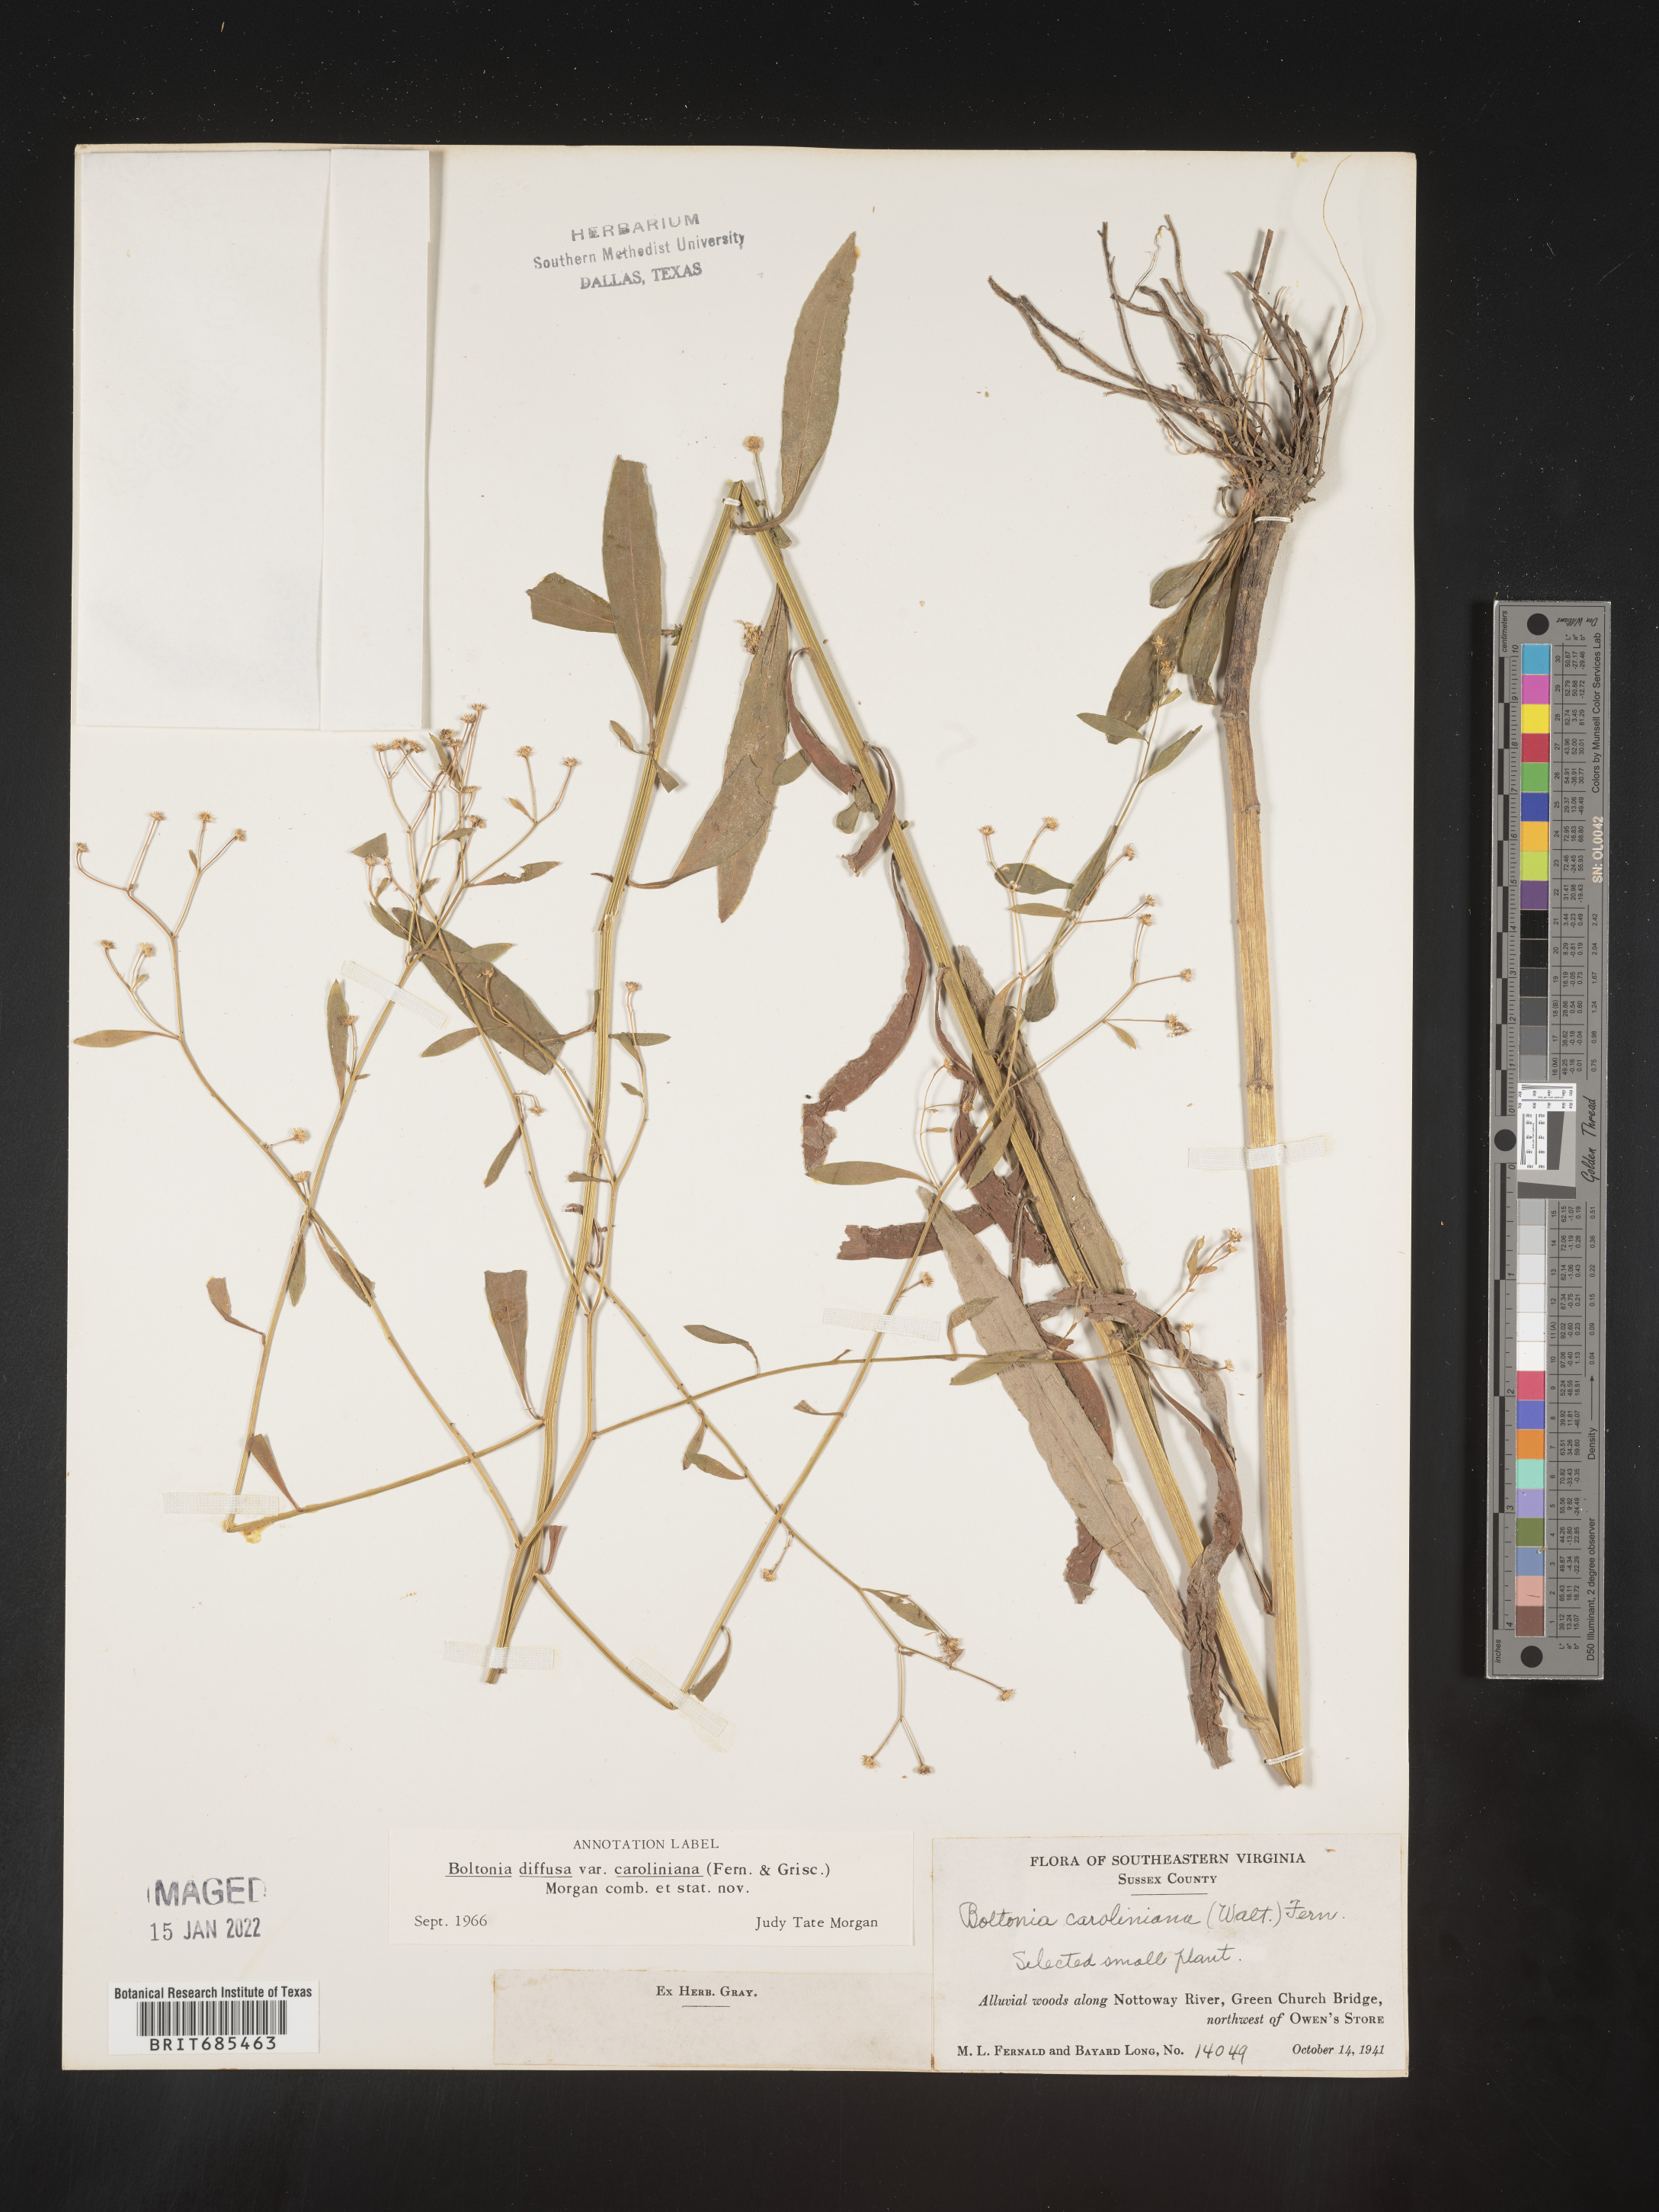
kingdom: Plantae
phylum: Tracheophyta
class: Magnoliopsida
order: Asterales
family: Asteraceae
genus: Boltonia
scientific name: Boltonia caroliniana
